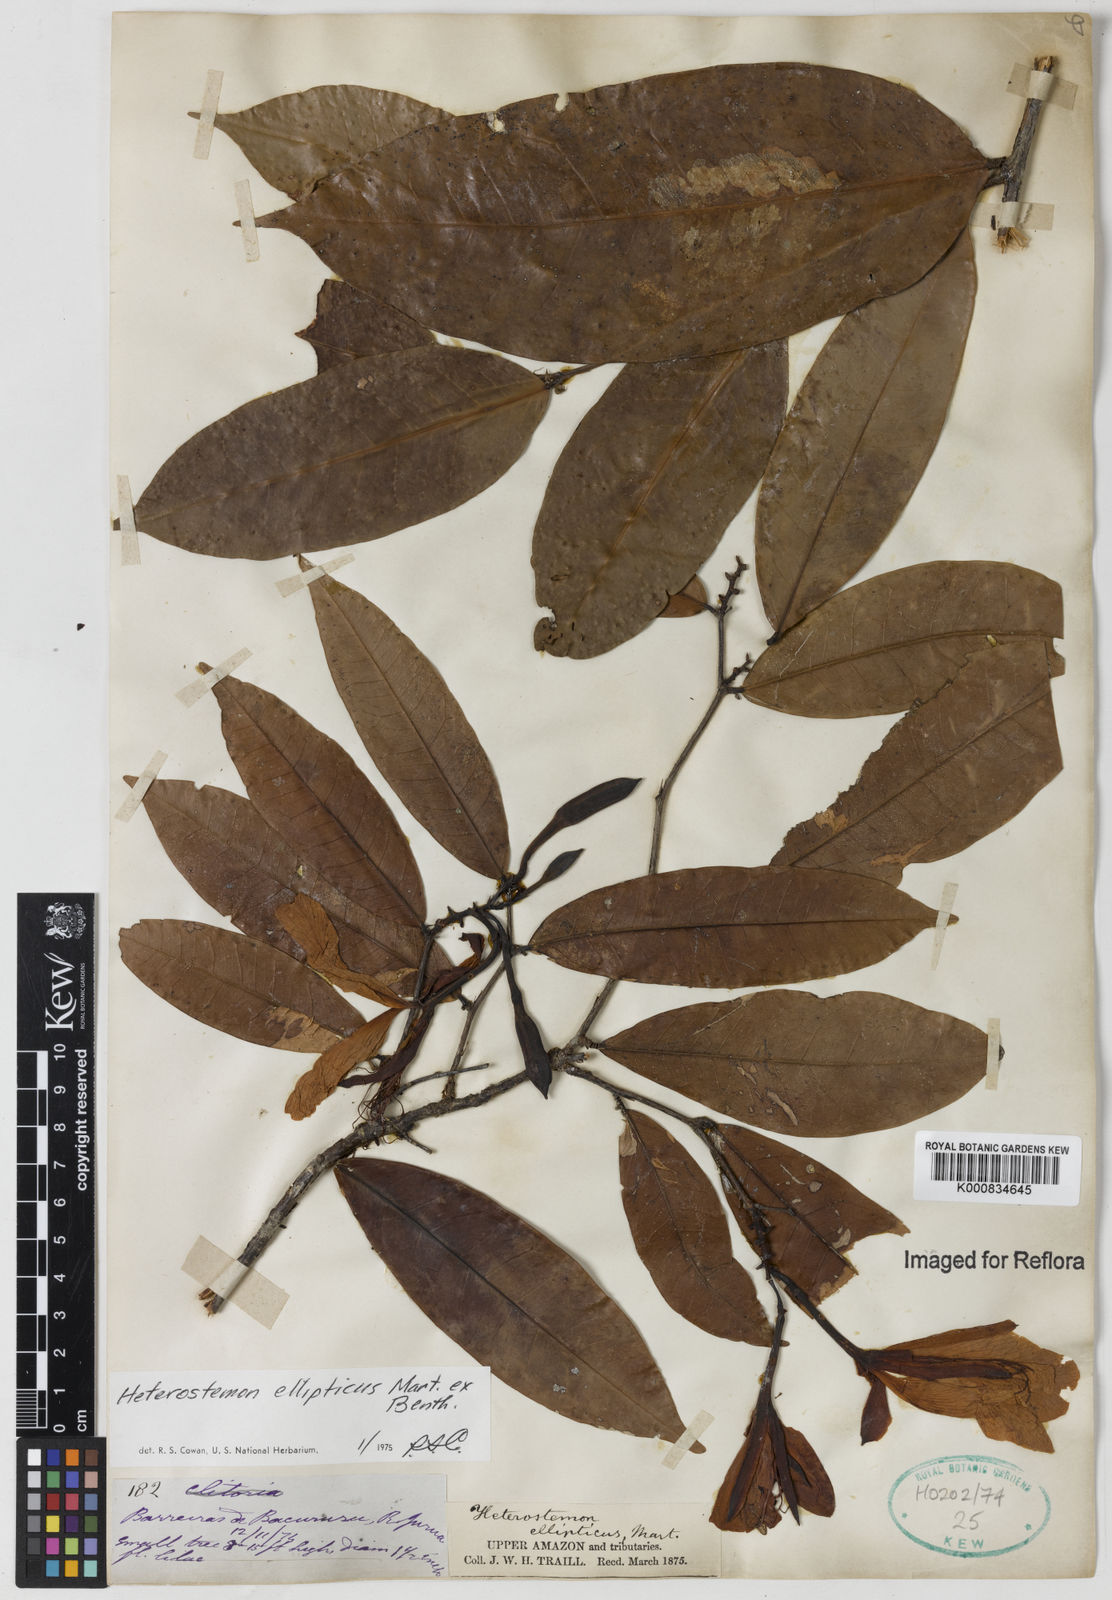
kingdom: Plantae
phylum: Tracheophyta
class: Magnoliopsida
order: Fabales
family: Fabaceae
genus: Heterostemon
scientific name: Heterostemon ellipticus
